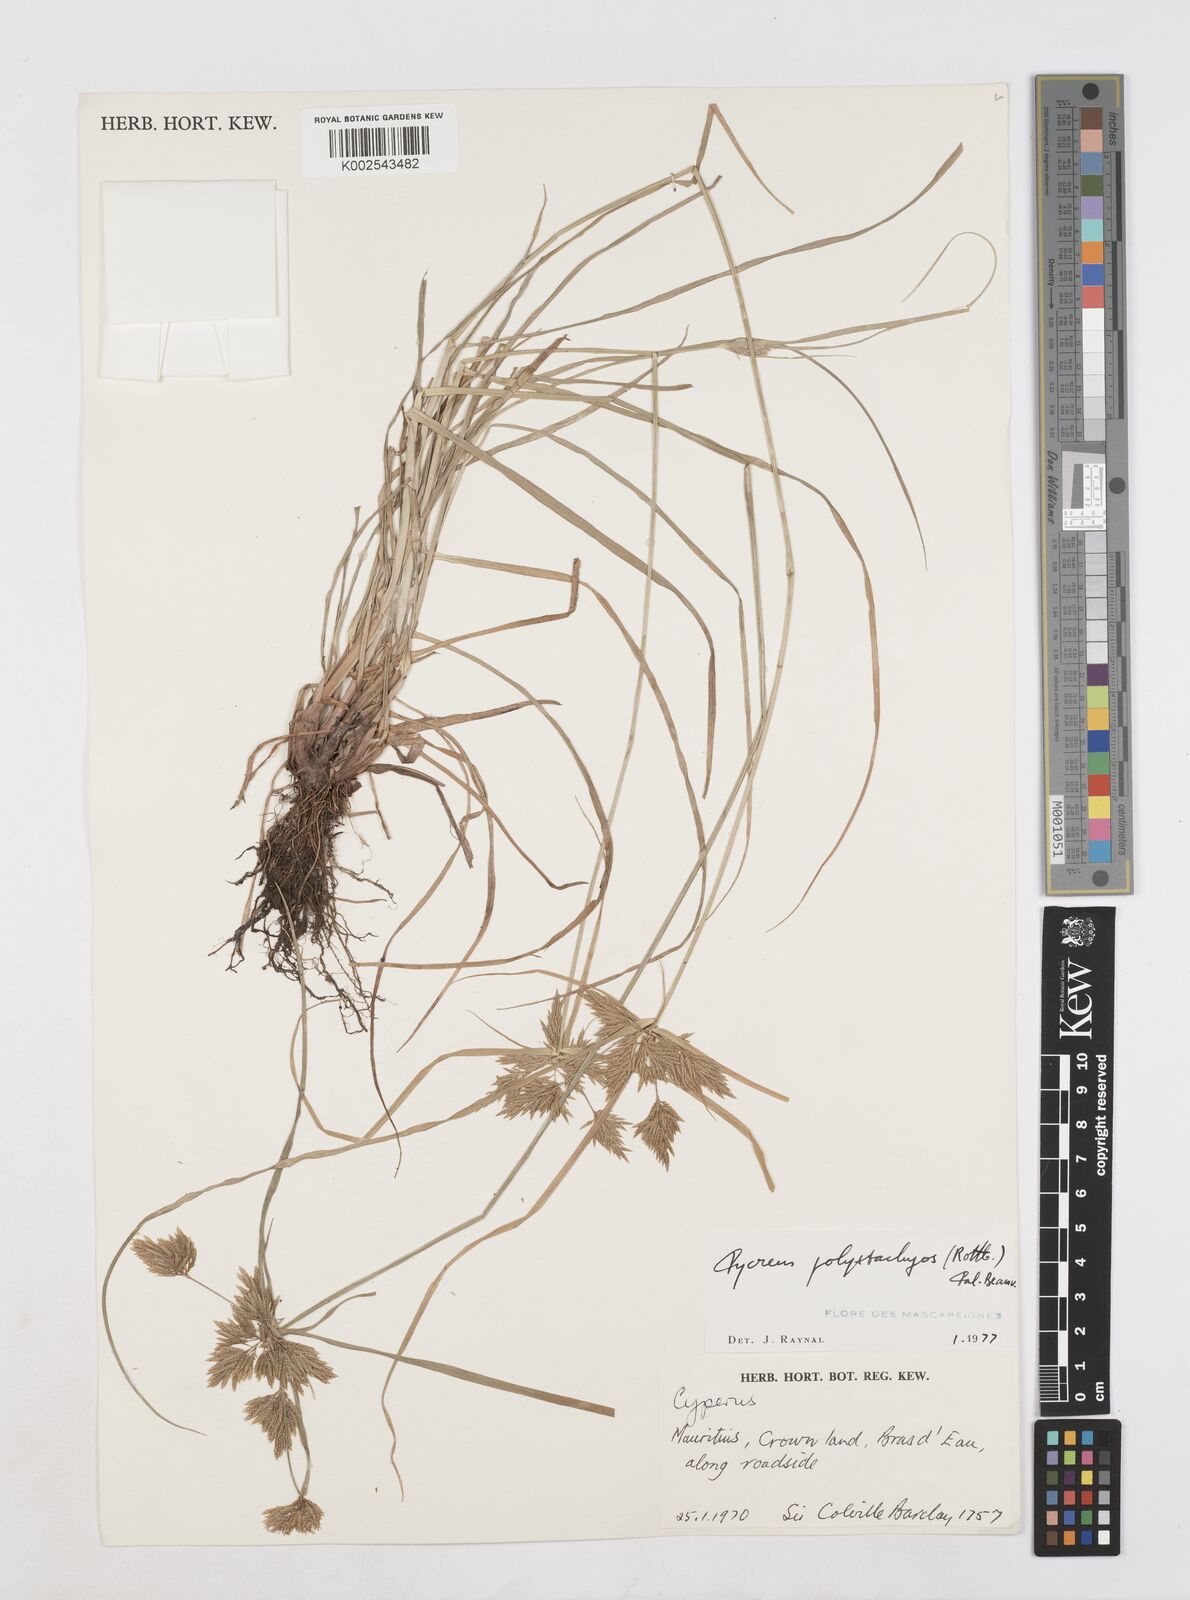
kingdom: Plantae
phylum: Tracheophyta
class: Liliopsida
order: Poales
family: Cyperaceae
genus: Cyperus
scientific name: Cyperus polystachyos
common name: Bunchy flat sedge
